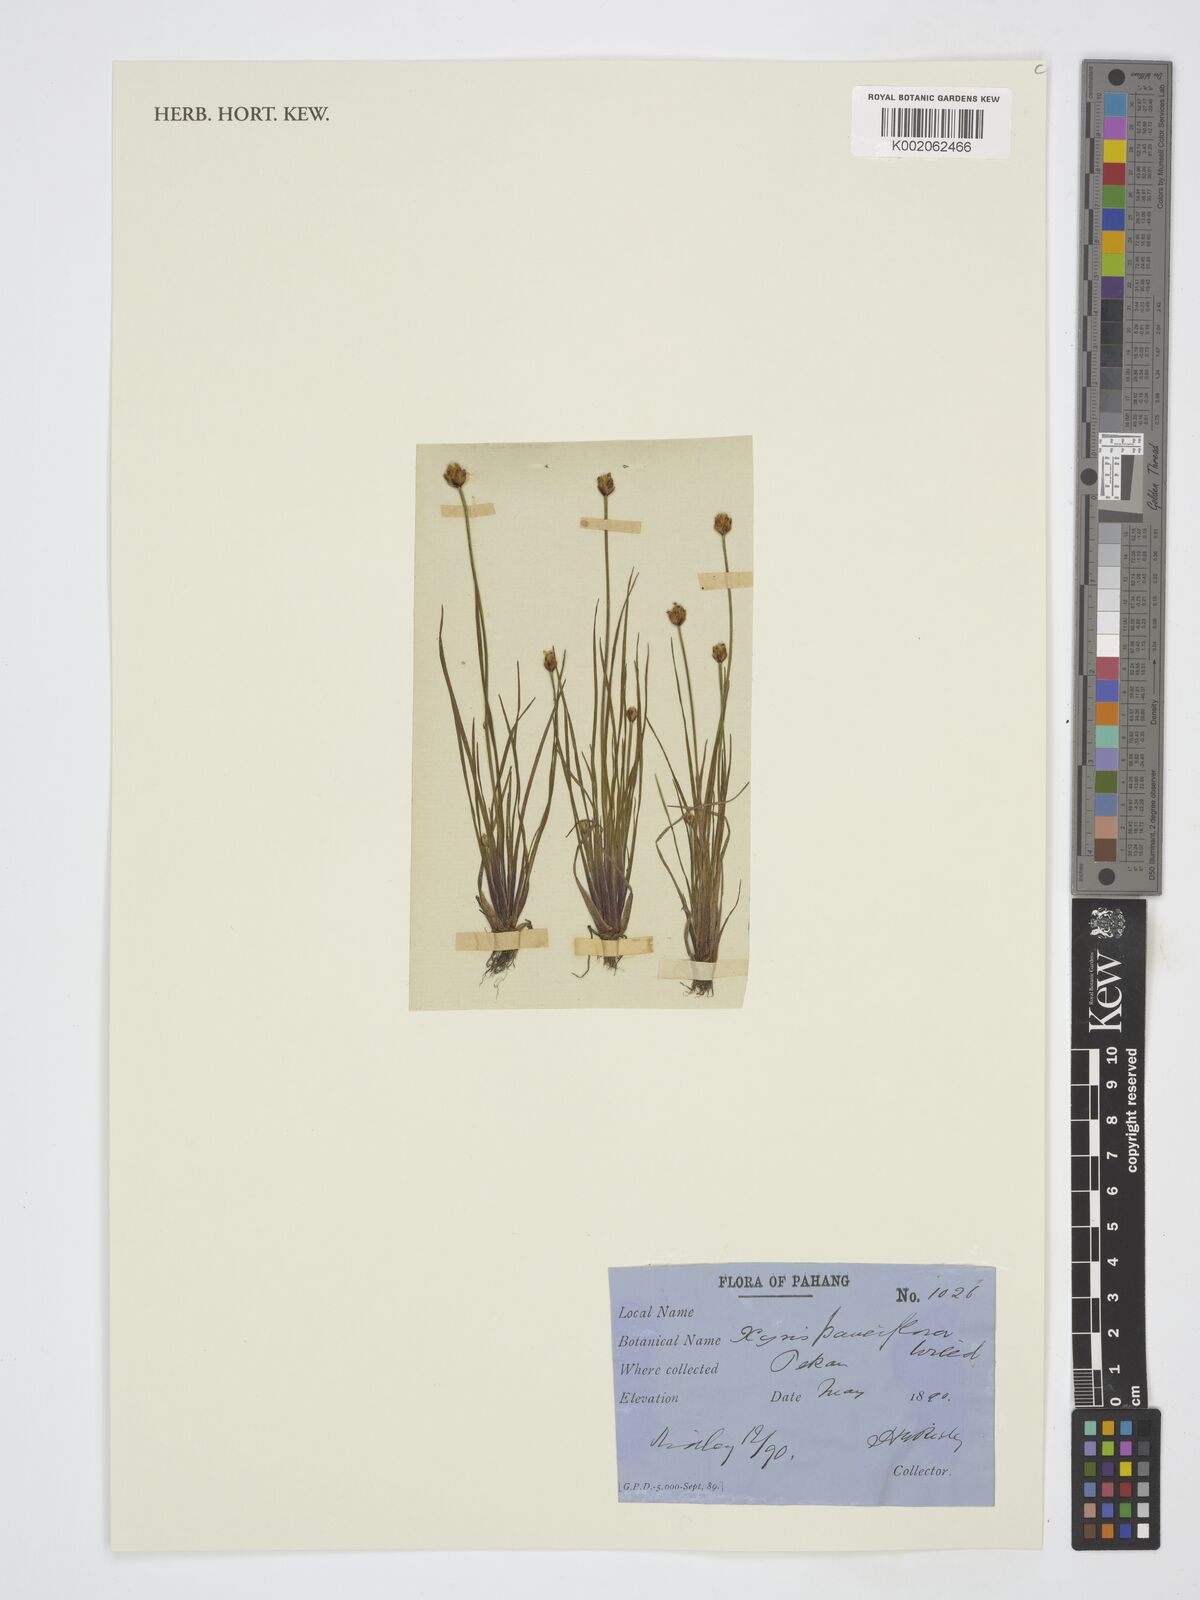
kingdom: Plantae
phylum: Tracheophyta
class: Liliopsida
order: Poales
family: Xyridaceae
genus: Xyris
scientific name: Xyris pauciflora
